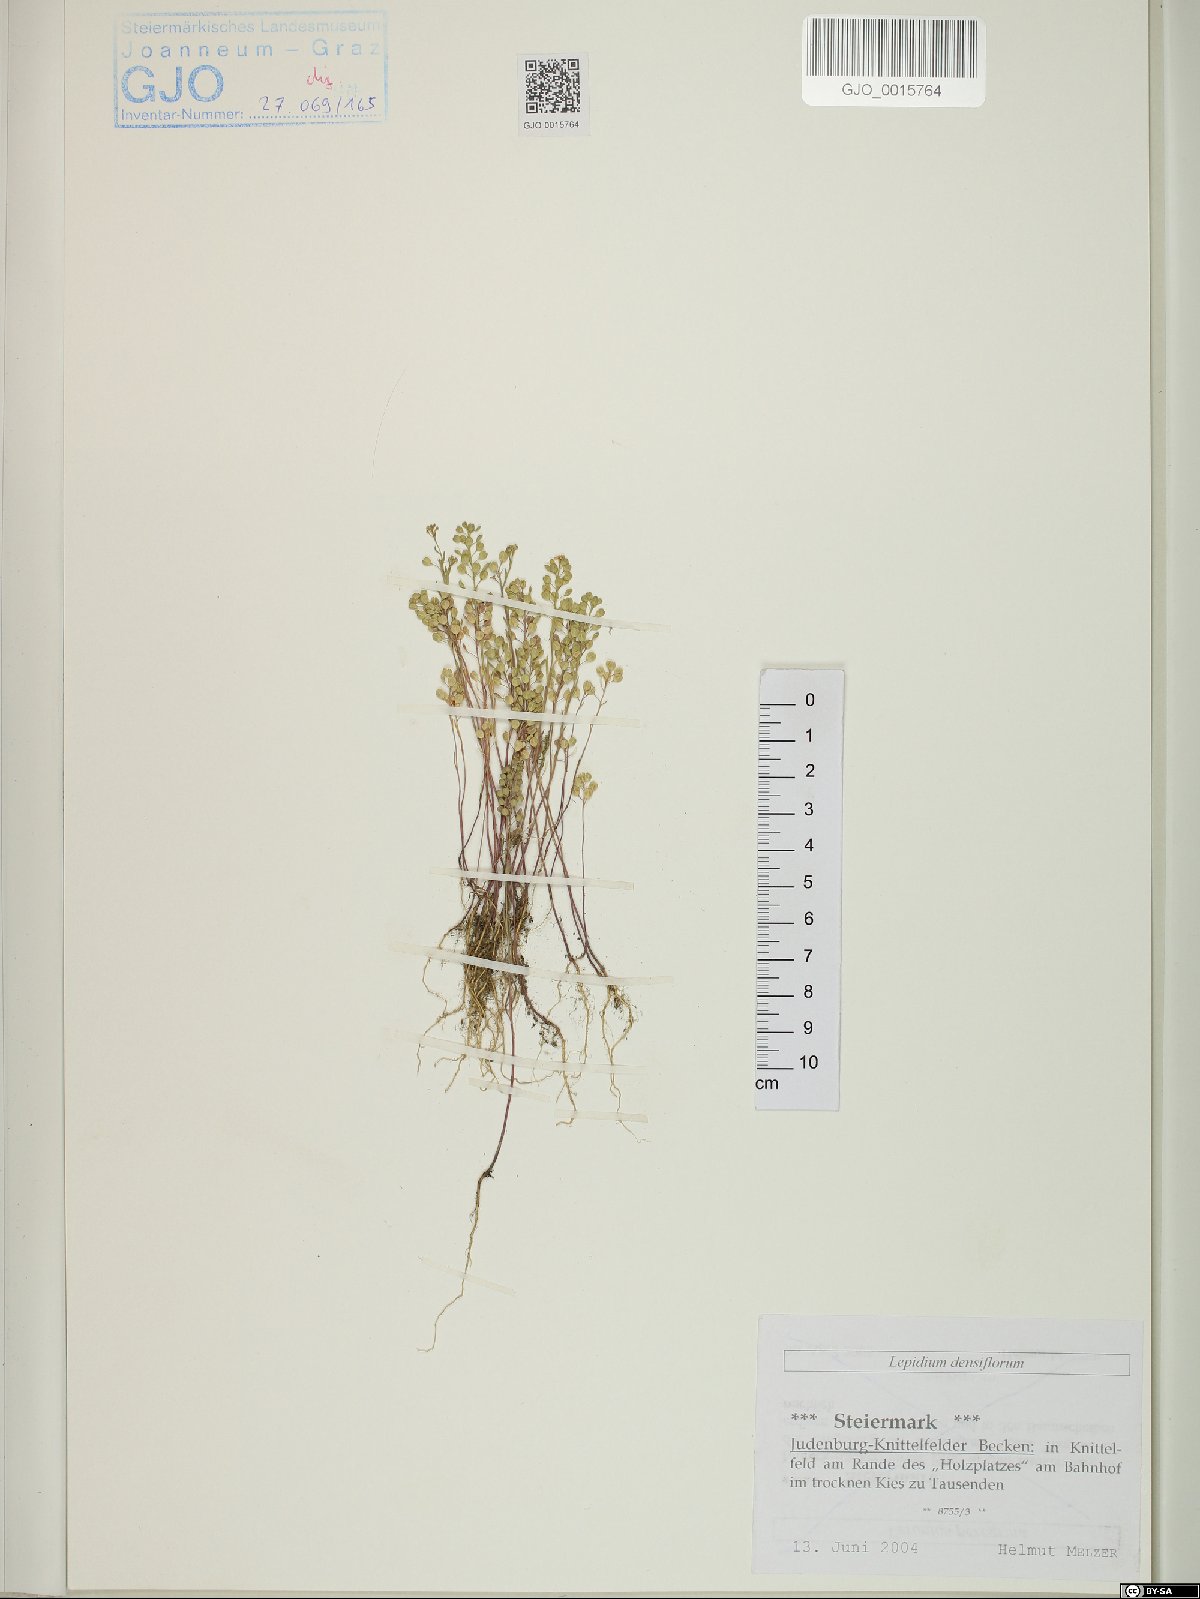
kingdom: Plantae
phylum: Tracheophyta
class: Magnoliopsida
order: Brassicales
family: Brassicaceae
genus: Lepidium
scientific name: Lepidium densiflorum
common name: Miner's pepperwort
